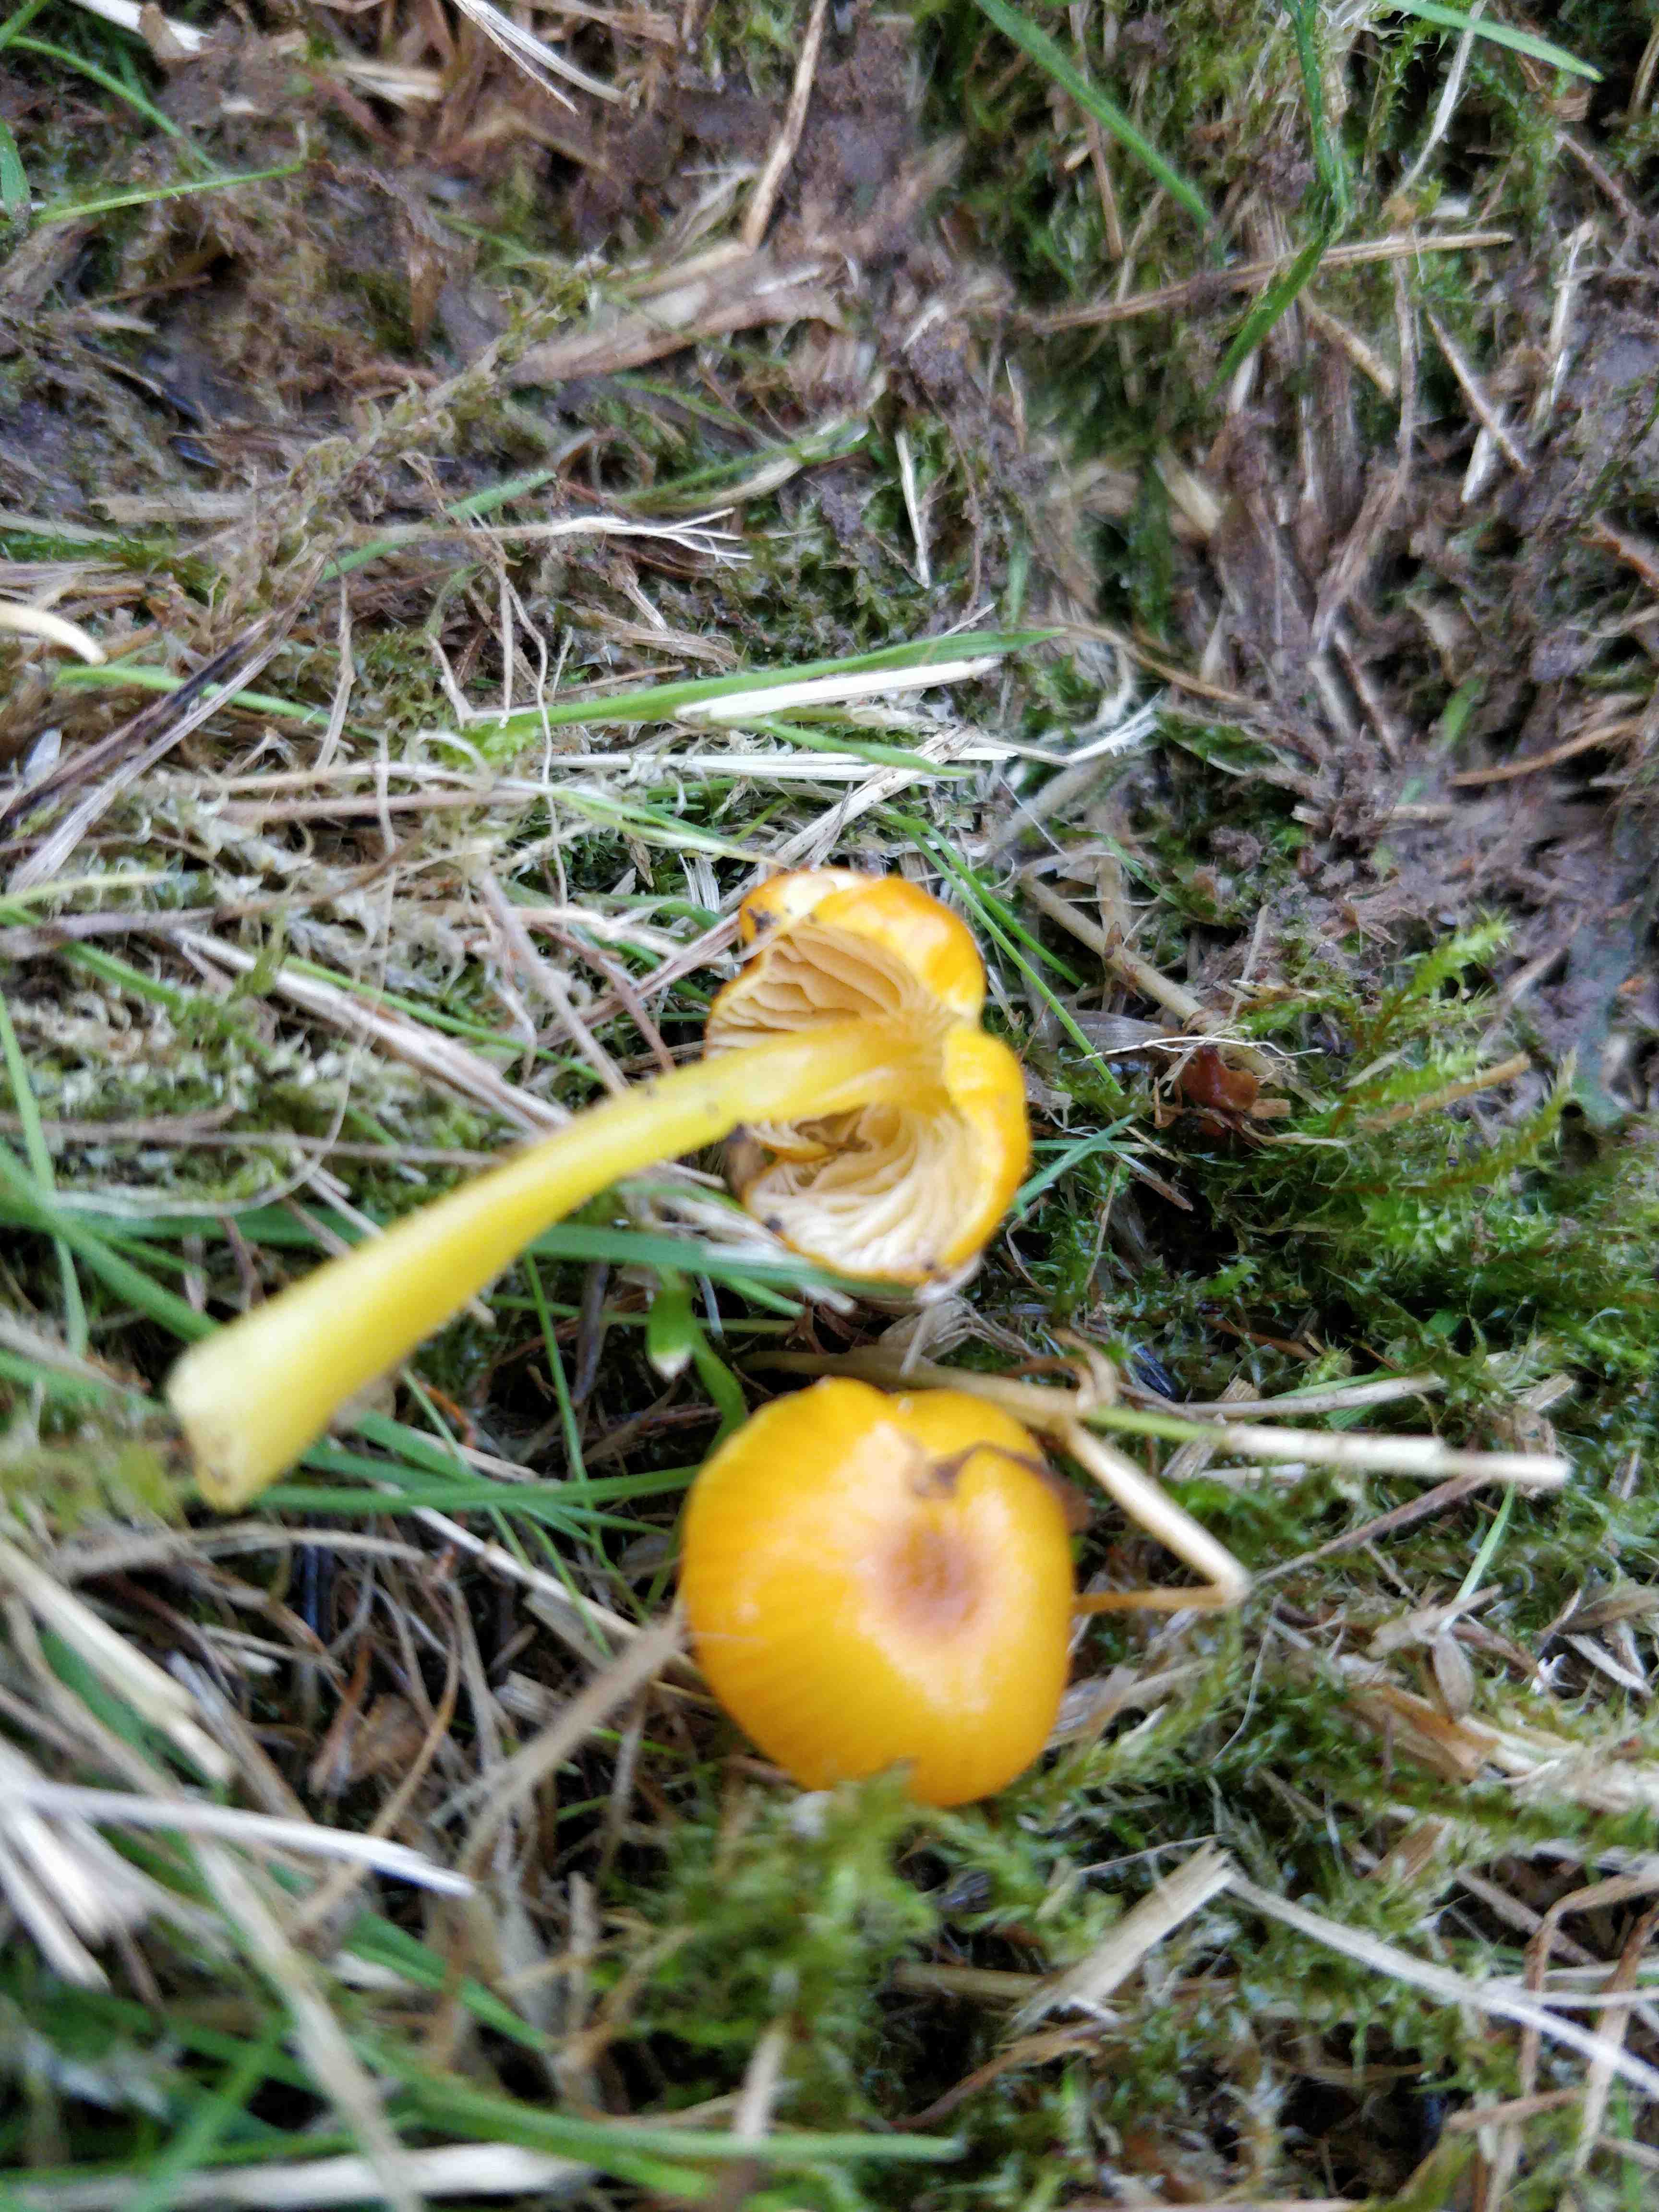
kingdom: Fungi
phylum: Basidiomycota
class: Agaricomycetes
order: Agaricales
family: Hygrophoraceae
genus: Hygrocybe
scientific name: Hygrocybe ceracea
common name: voksgul vokshat
